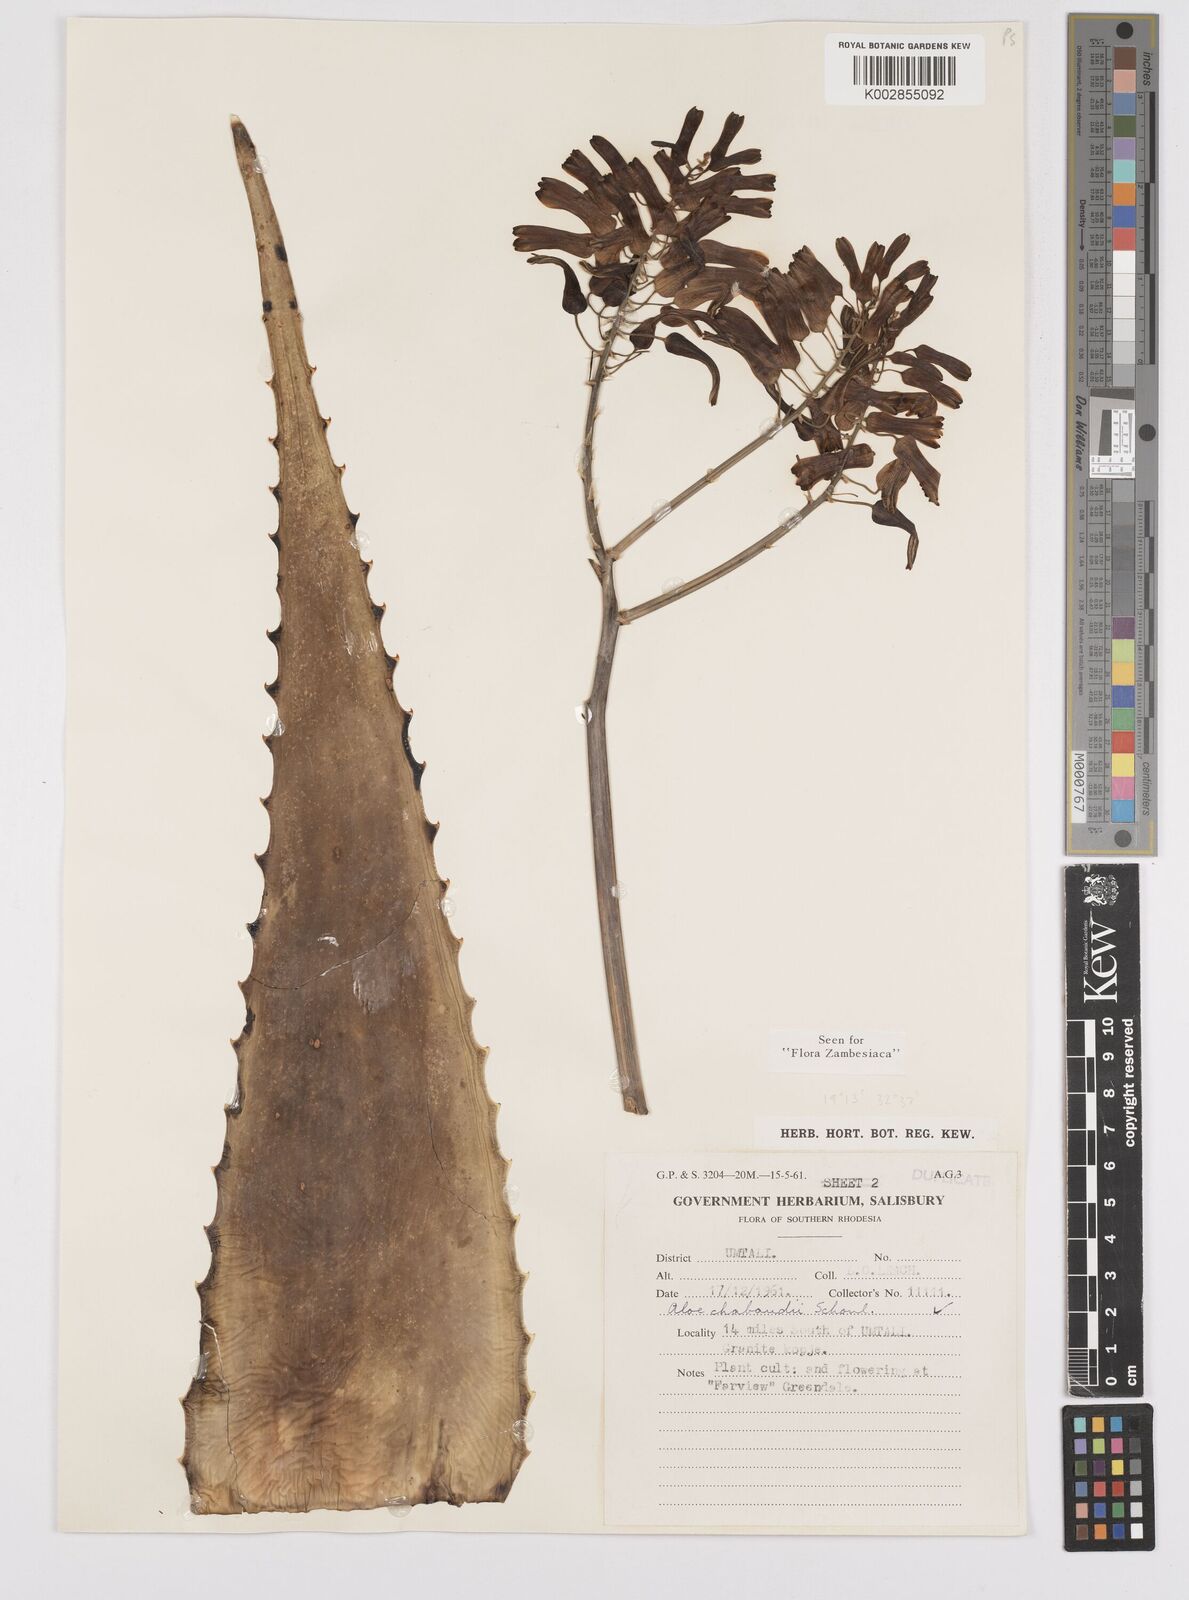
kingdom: Plantae
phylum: Tracheophyta
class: Liliopsida
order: Asparagales
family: Asphodelaceae
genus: Aloe
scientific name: Aloe chabaudii
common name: Chabaud's aloe
